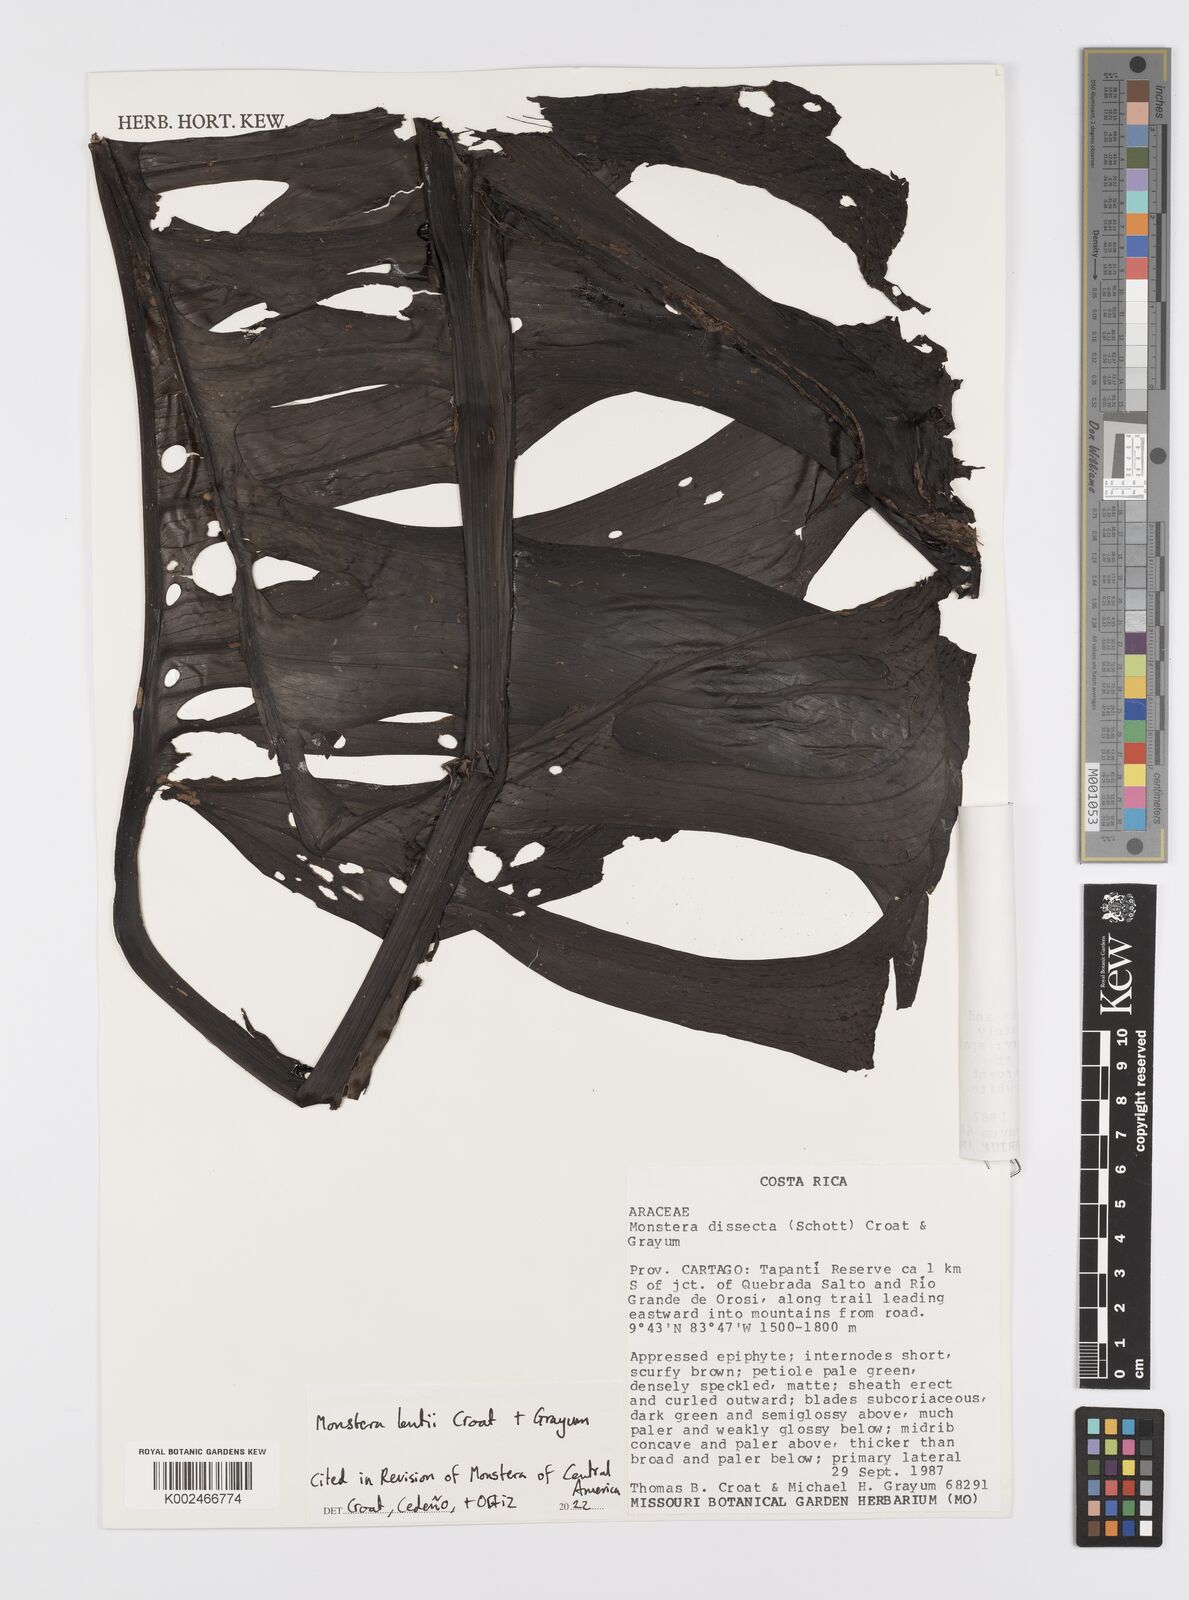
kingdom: Plantae
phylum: Tracheophyta
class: Liliopsida
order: Alismatales
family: Araceae
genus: Monstera
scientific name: Monstera lentii
